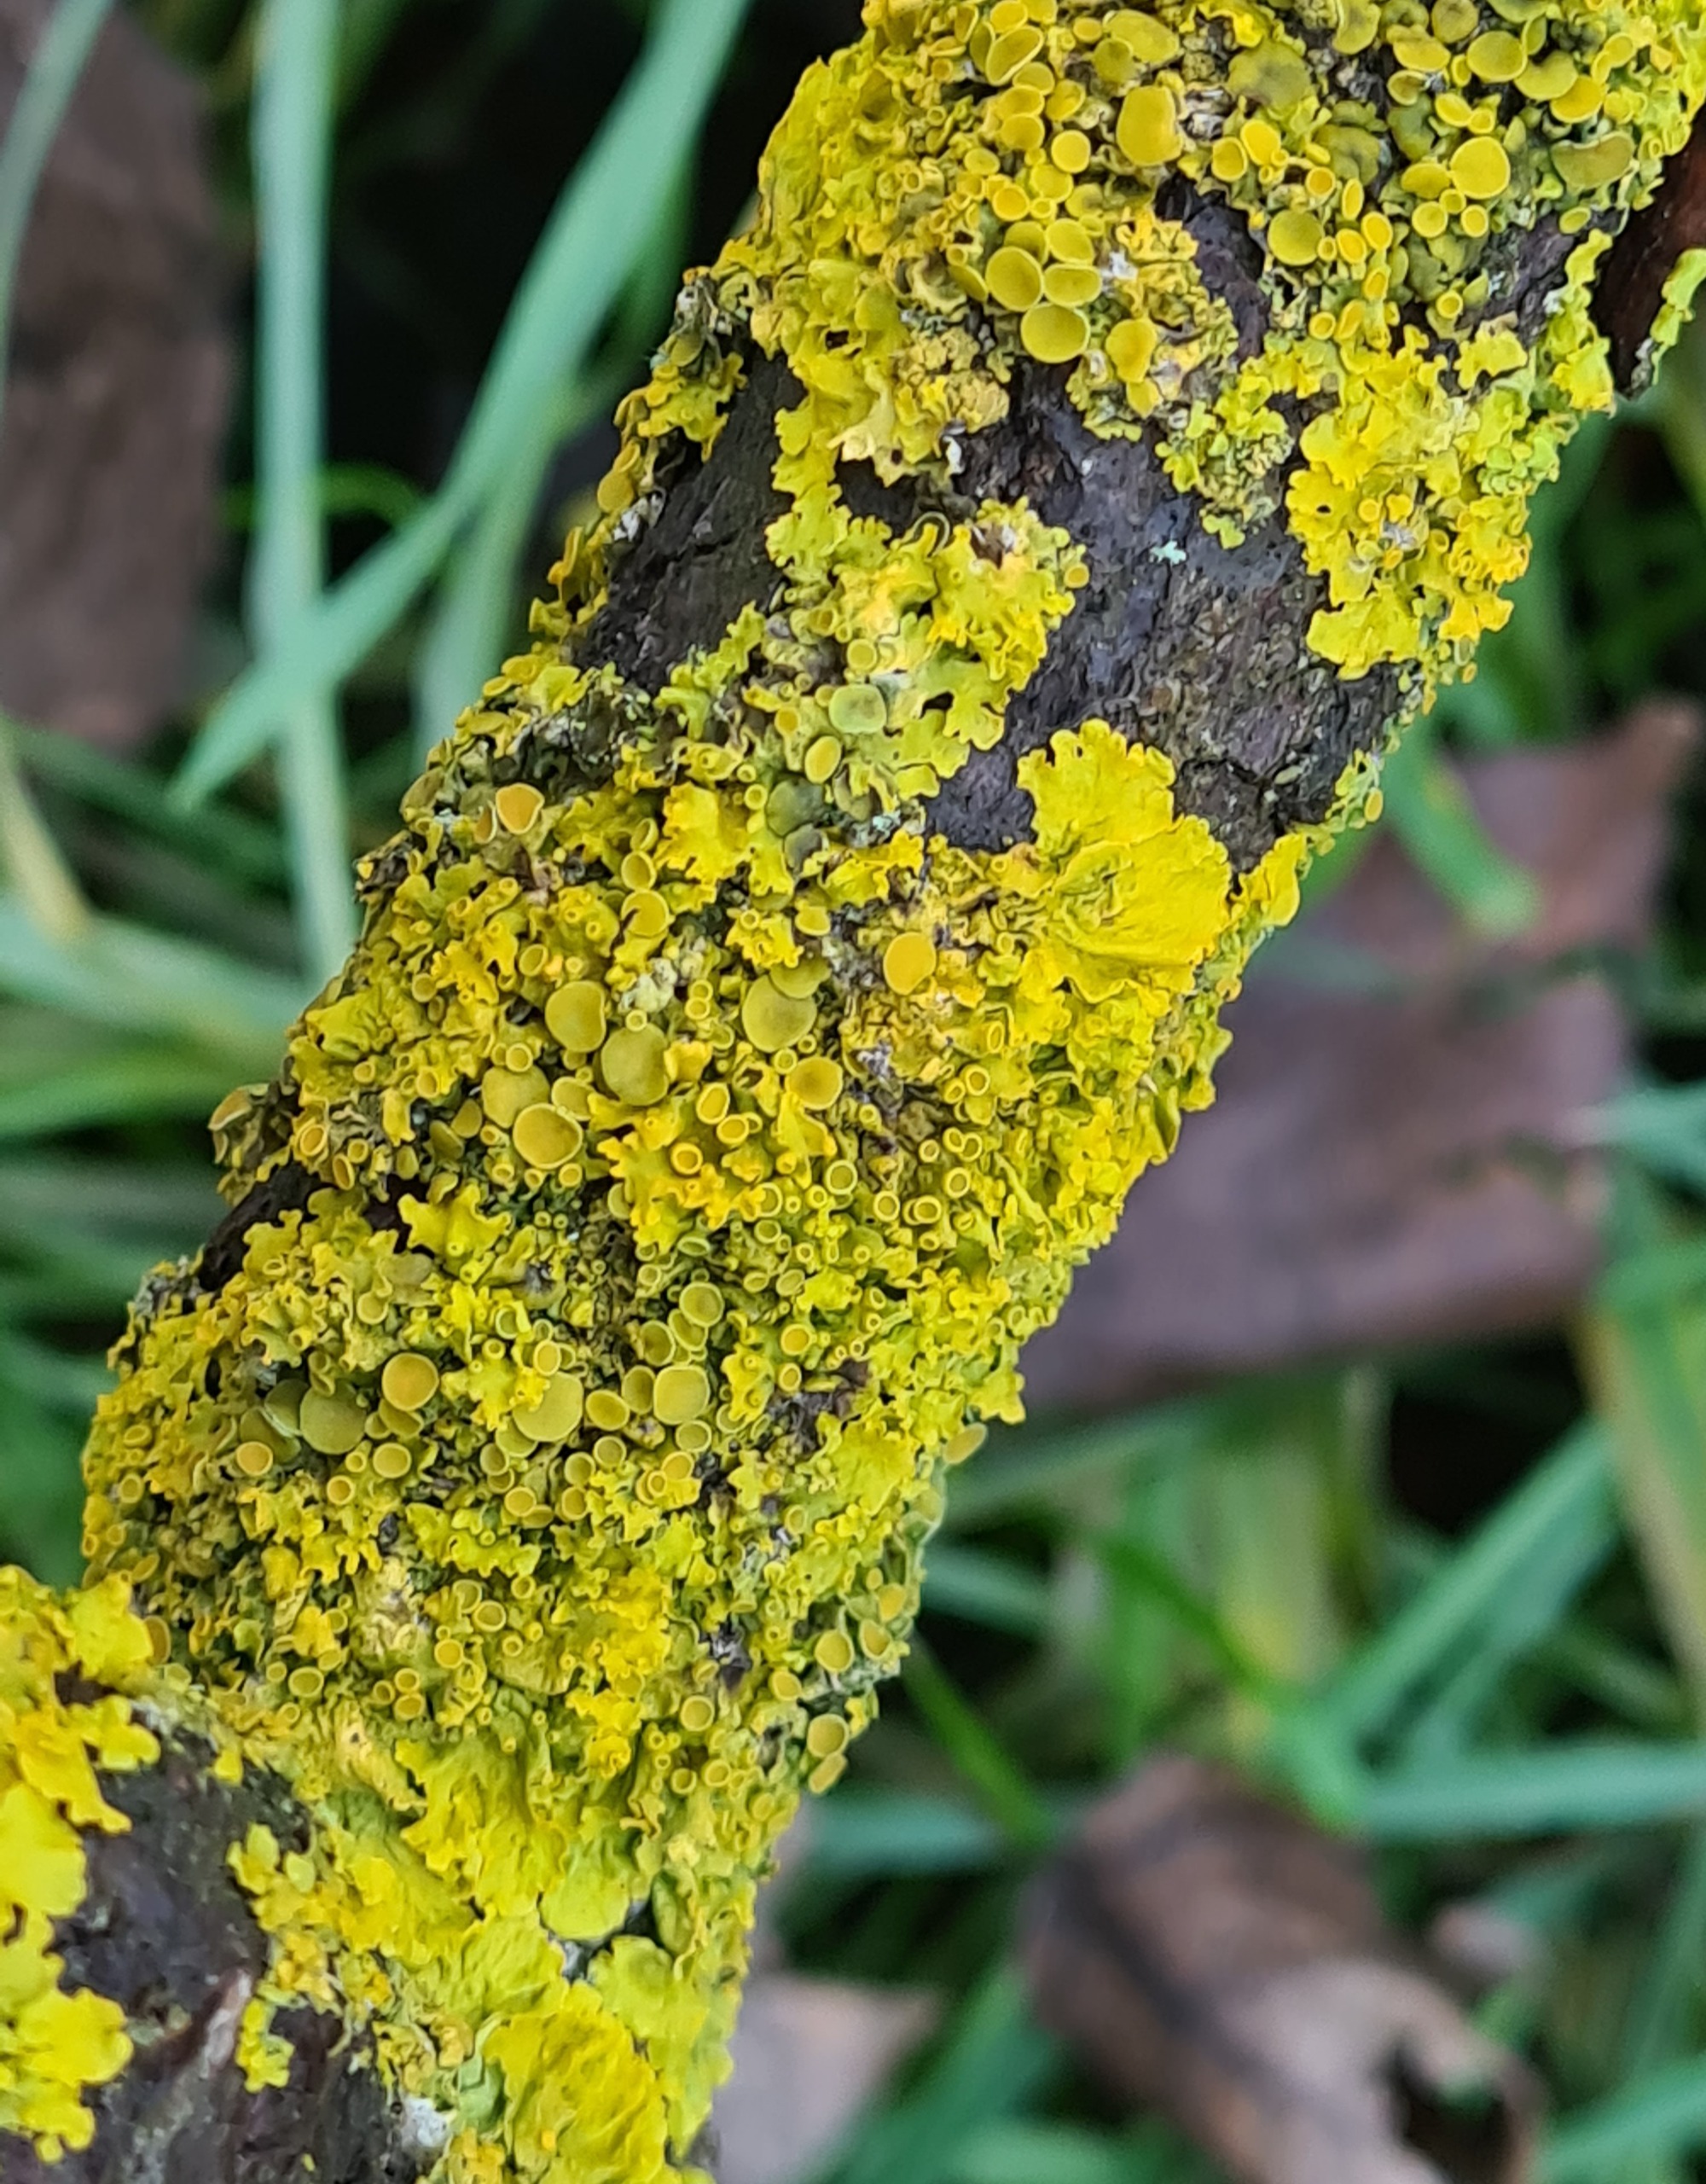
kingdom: Fungi
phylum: Ascomycota
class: Lecanoromycetes
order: Teloschistales
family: Teloschistaceae
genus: Xanthoria
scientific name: Xanthoria parietina
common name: Almindelig væggelav
